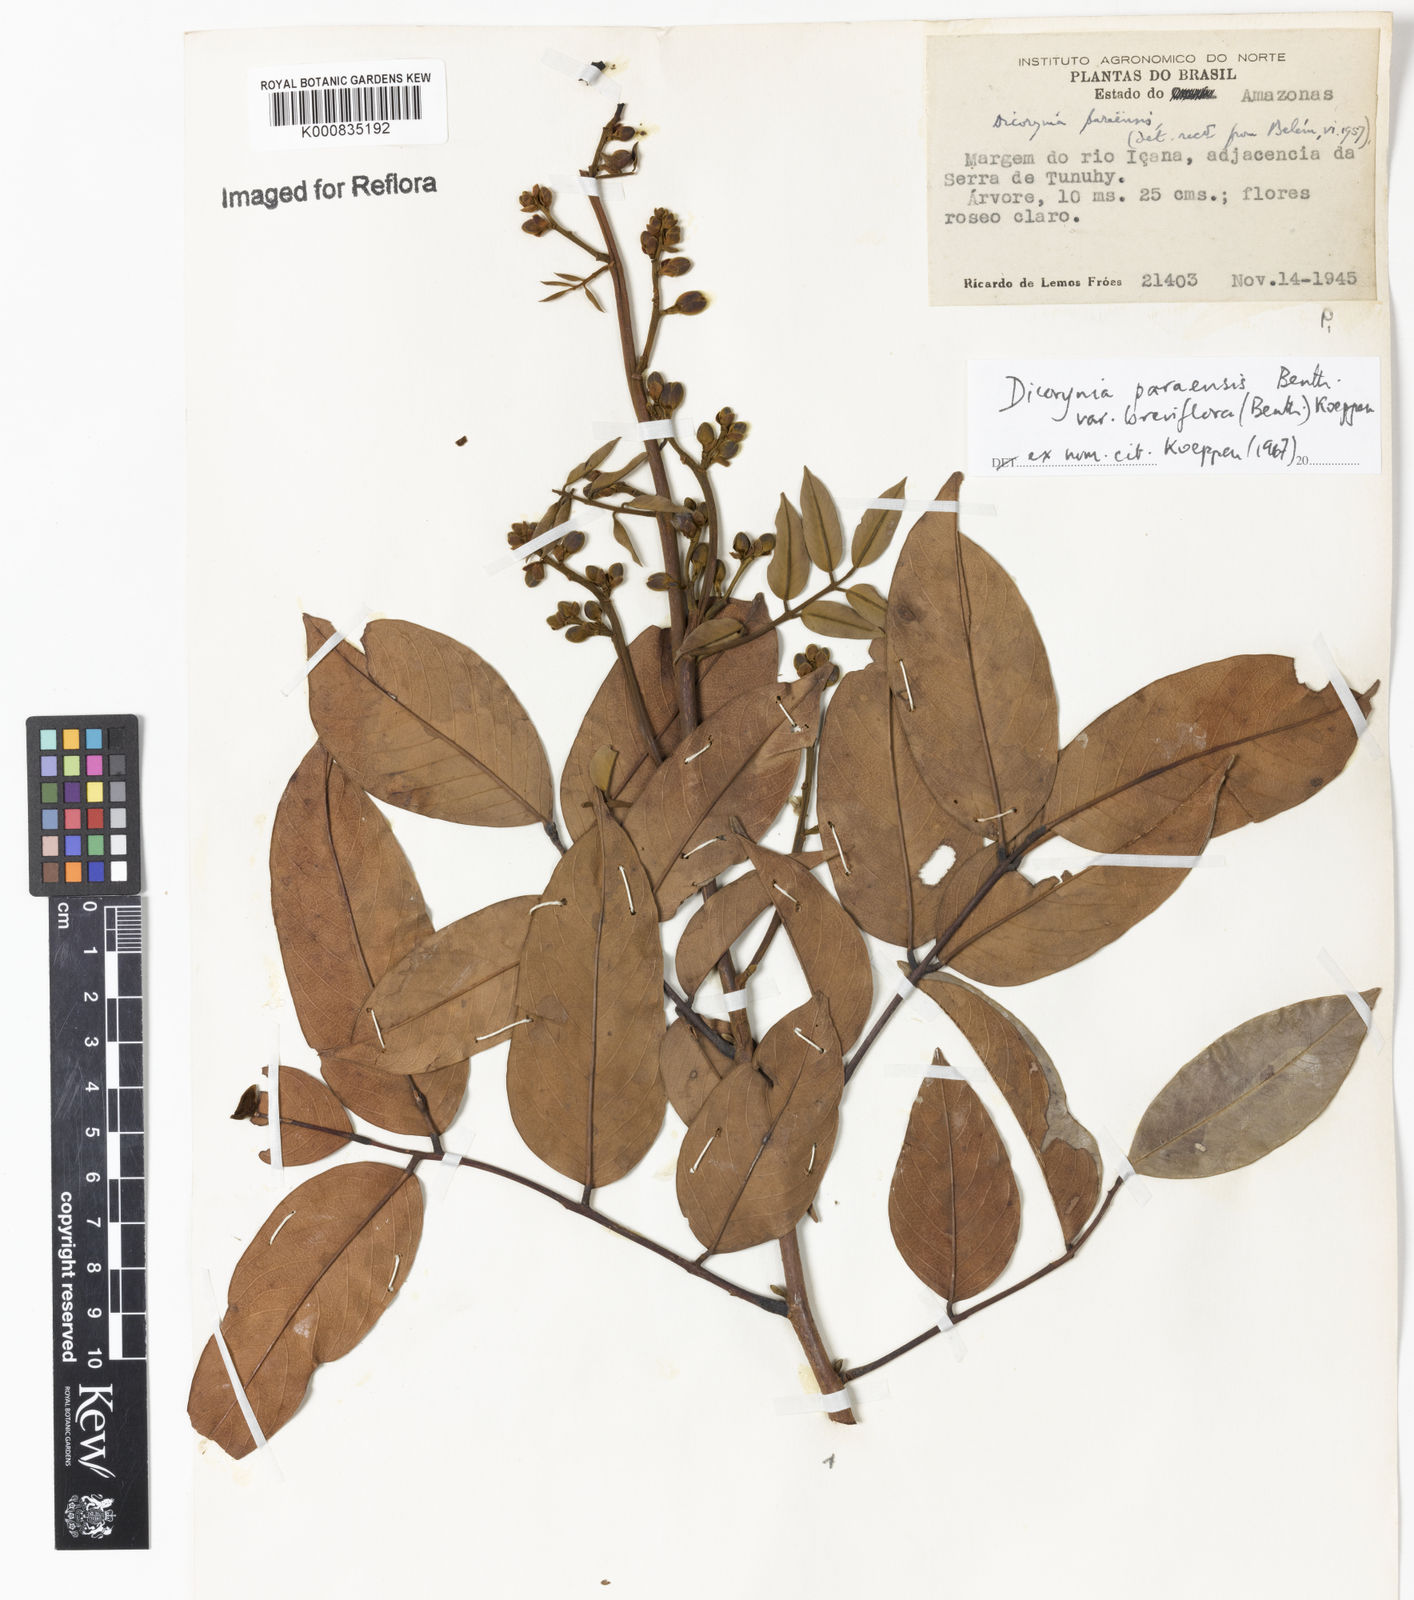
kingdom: Plantae
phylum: Tracheophyta
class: Magnoliopsida
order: Fabales
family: Fabaceae
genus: Dicorynia
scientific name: Dicorynia paraensis
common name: Angelique
